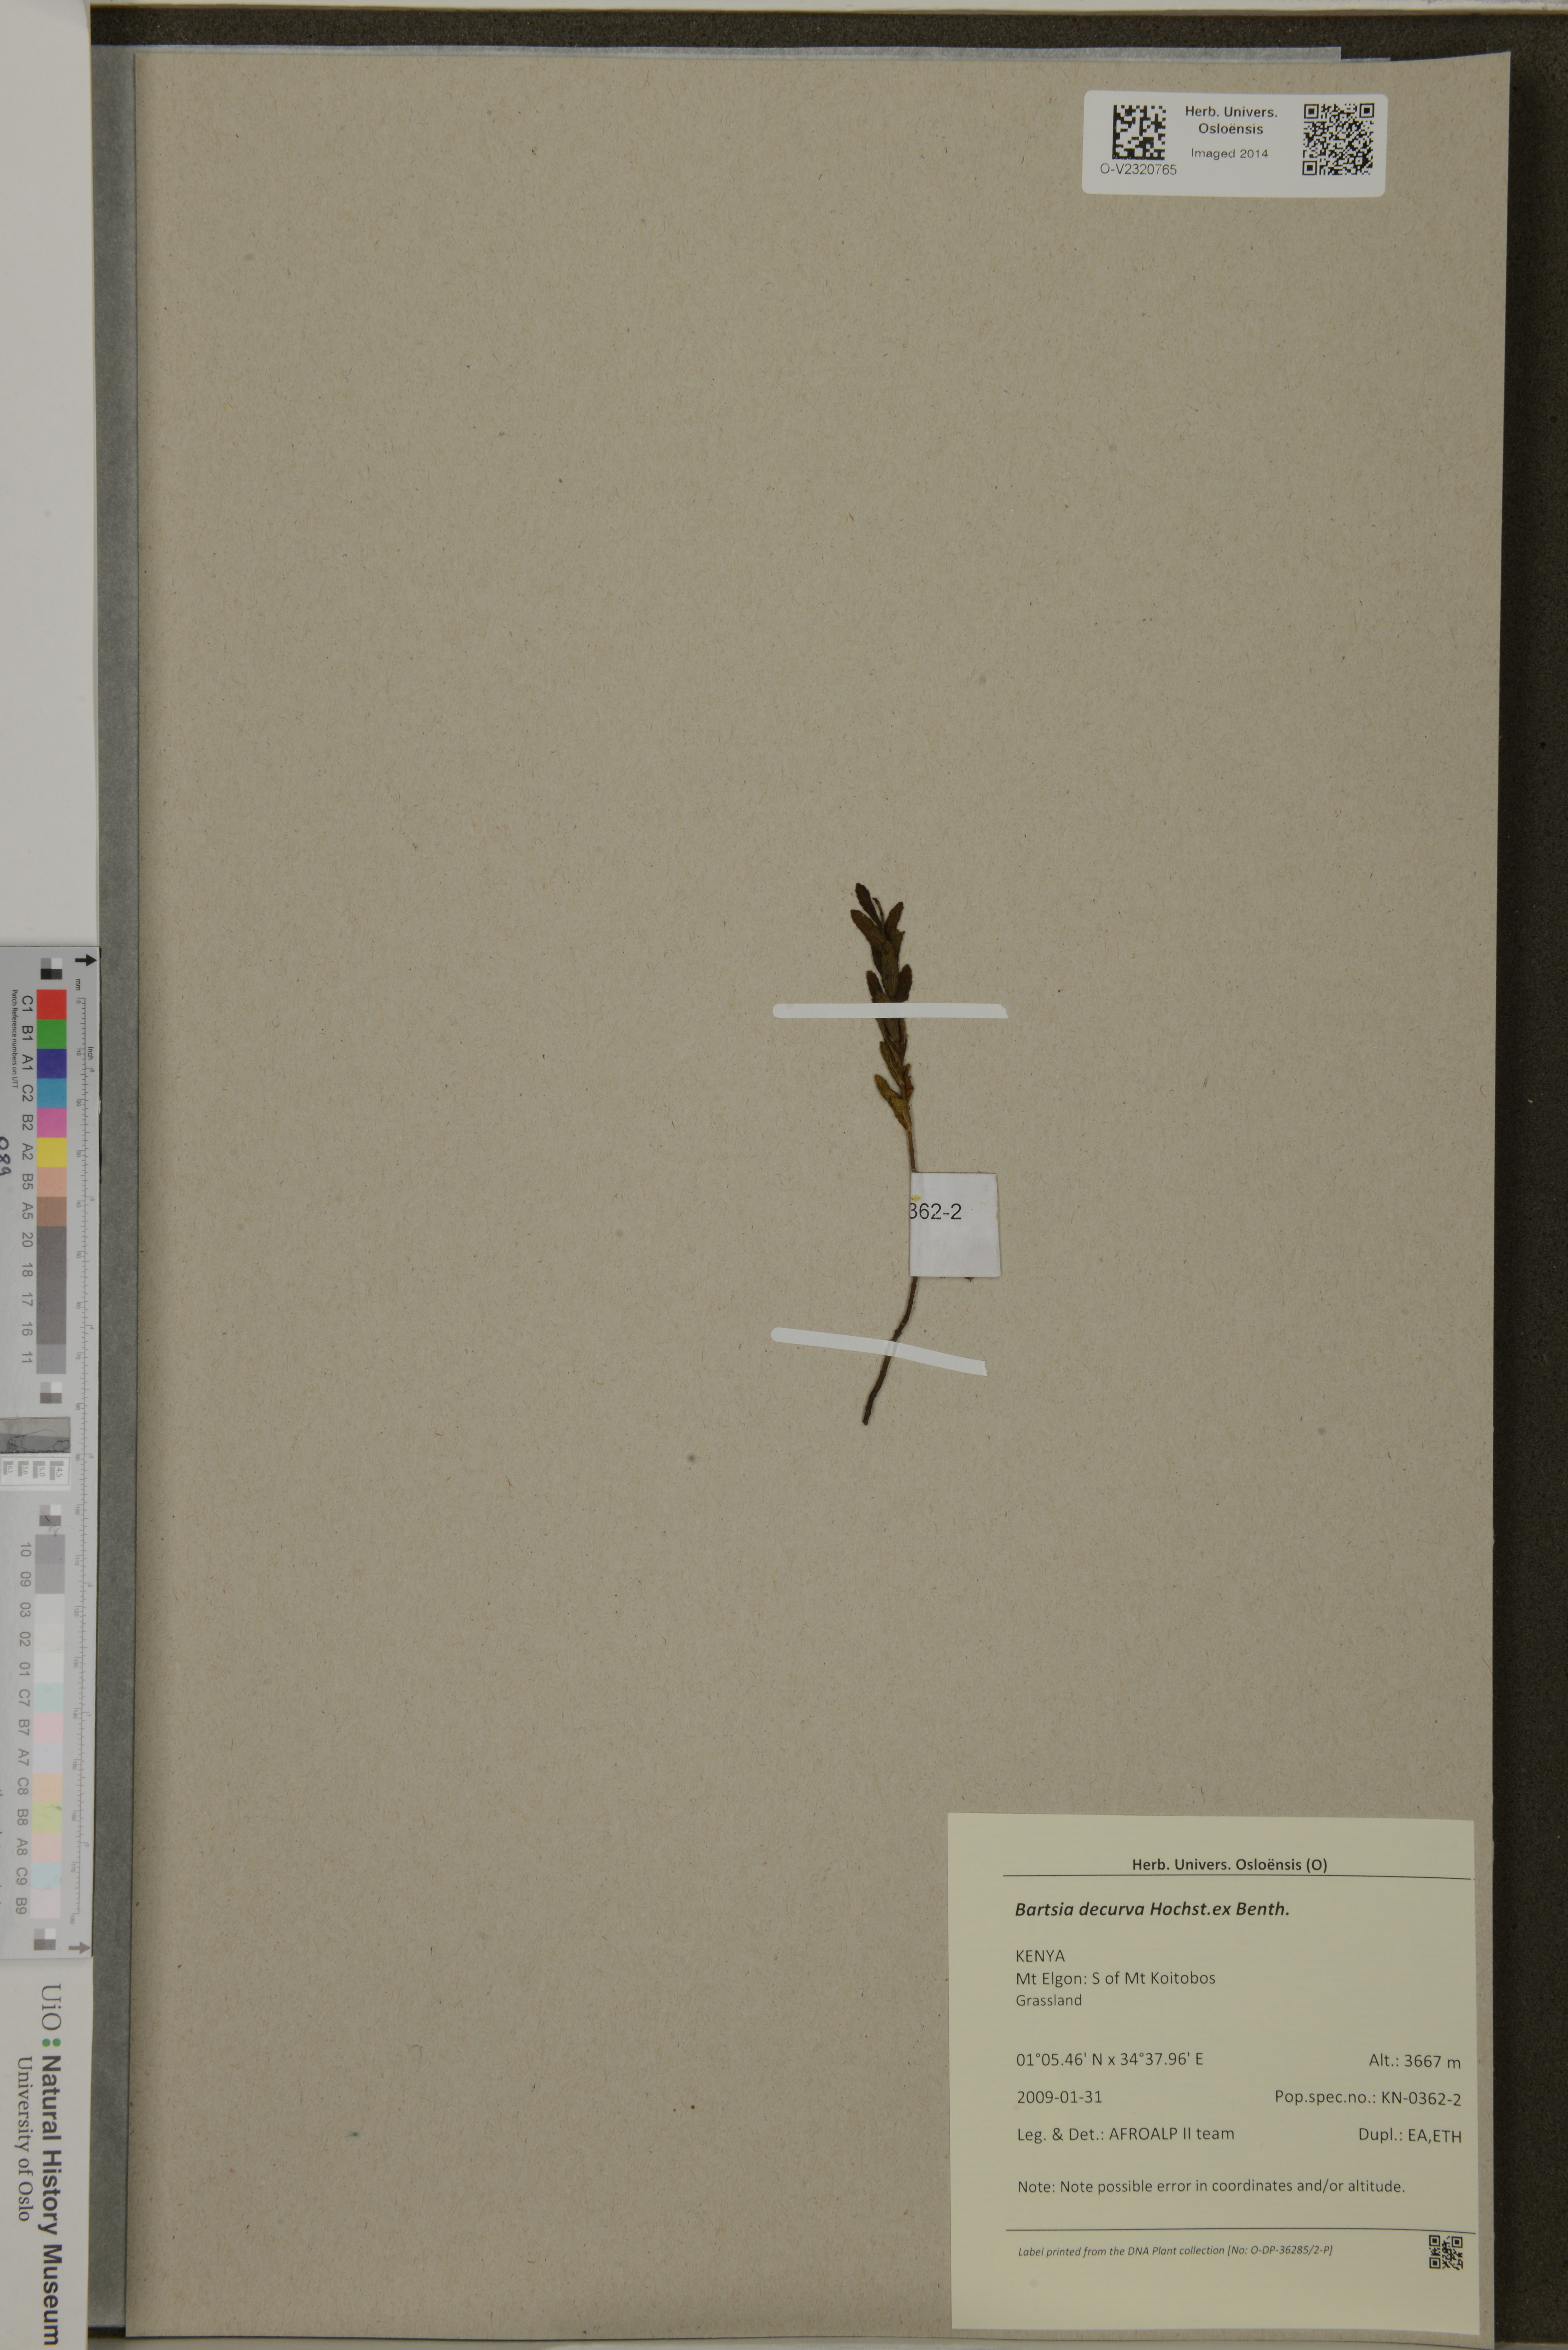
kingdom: Plantae
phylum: Tracheophyta
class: Magnoliopsida
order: Lamiales
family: Orobanchaceae
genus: Hedbergia
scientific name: Hedbergia decurva
